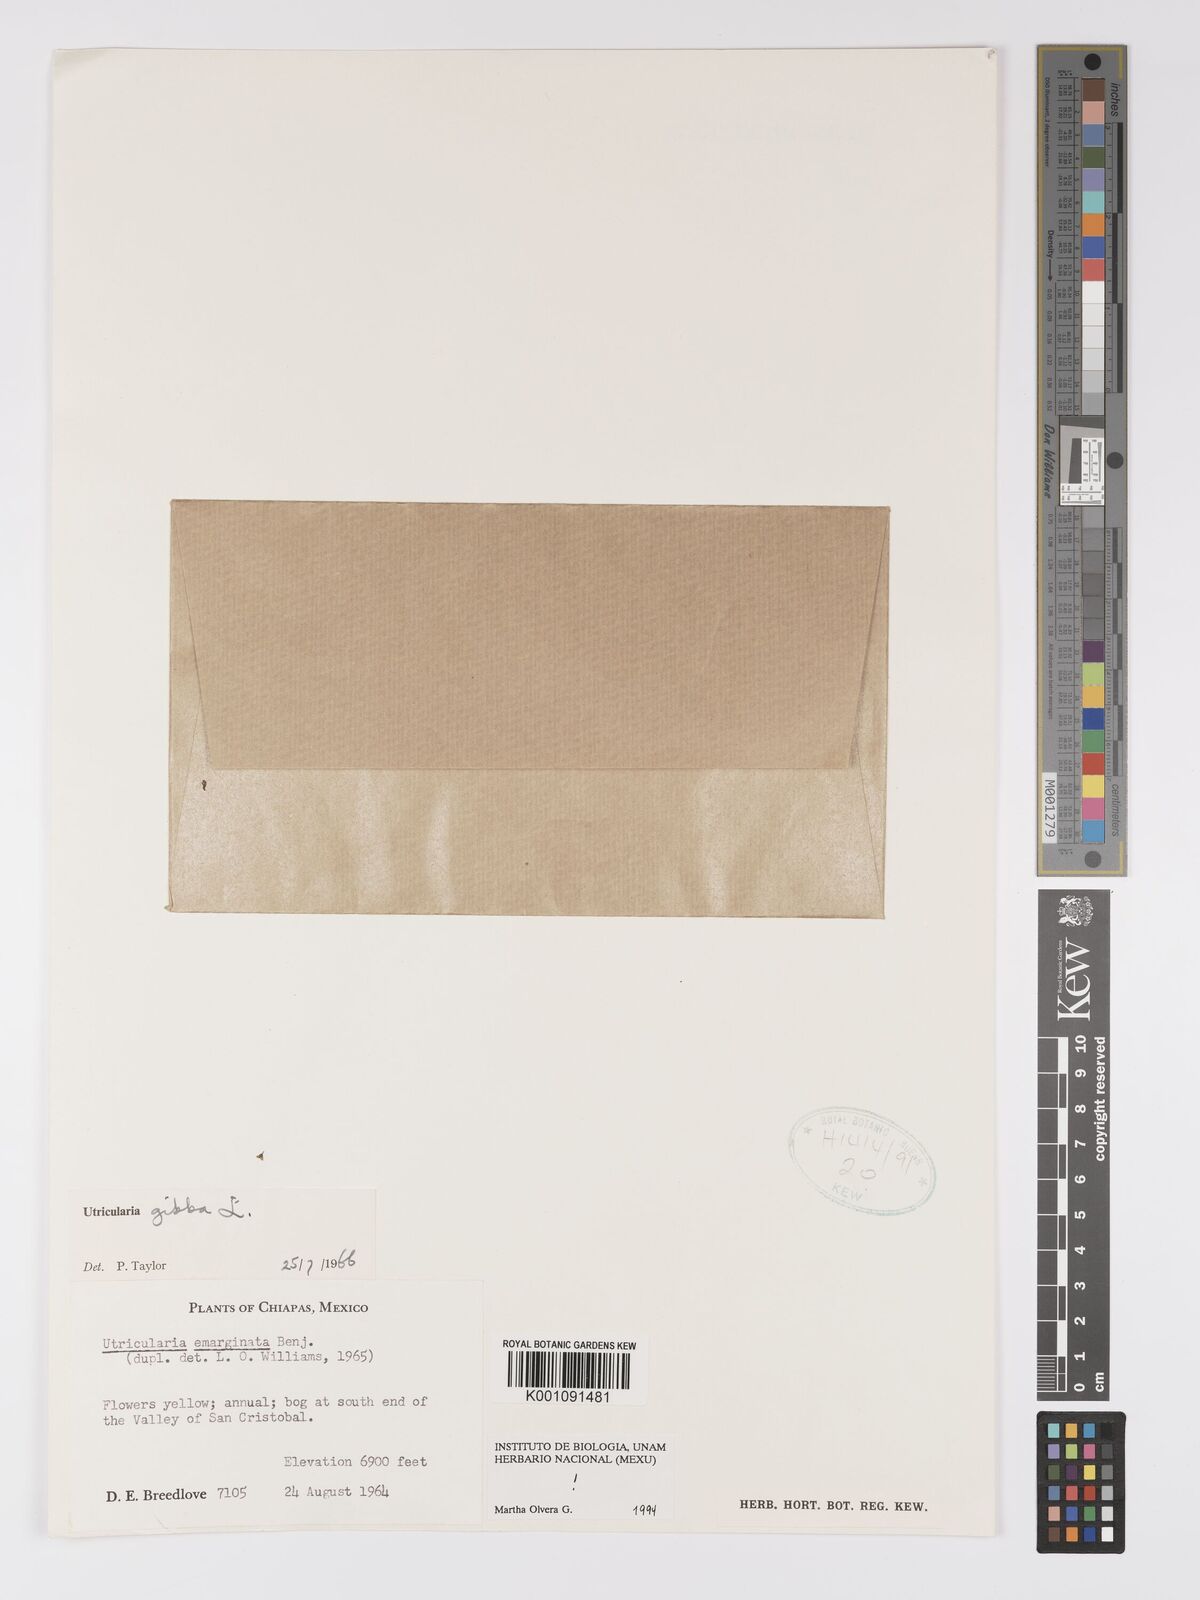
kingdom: Plantae
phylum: Tracheophyta
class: Magnoliopsida
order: Lamiales
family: Lentibulariaceae
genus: Utricularia
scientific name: Utricularia gibba
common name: Humped bladderwort
